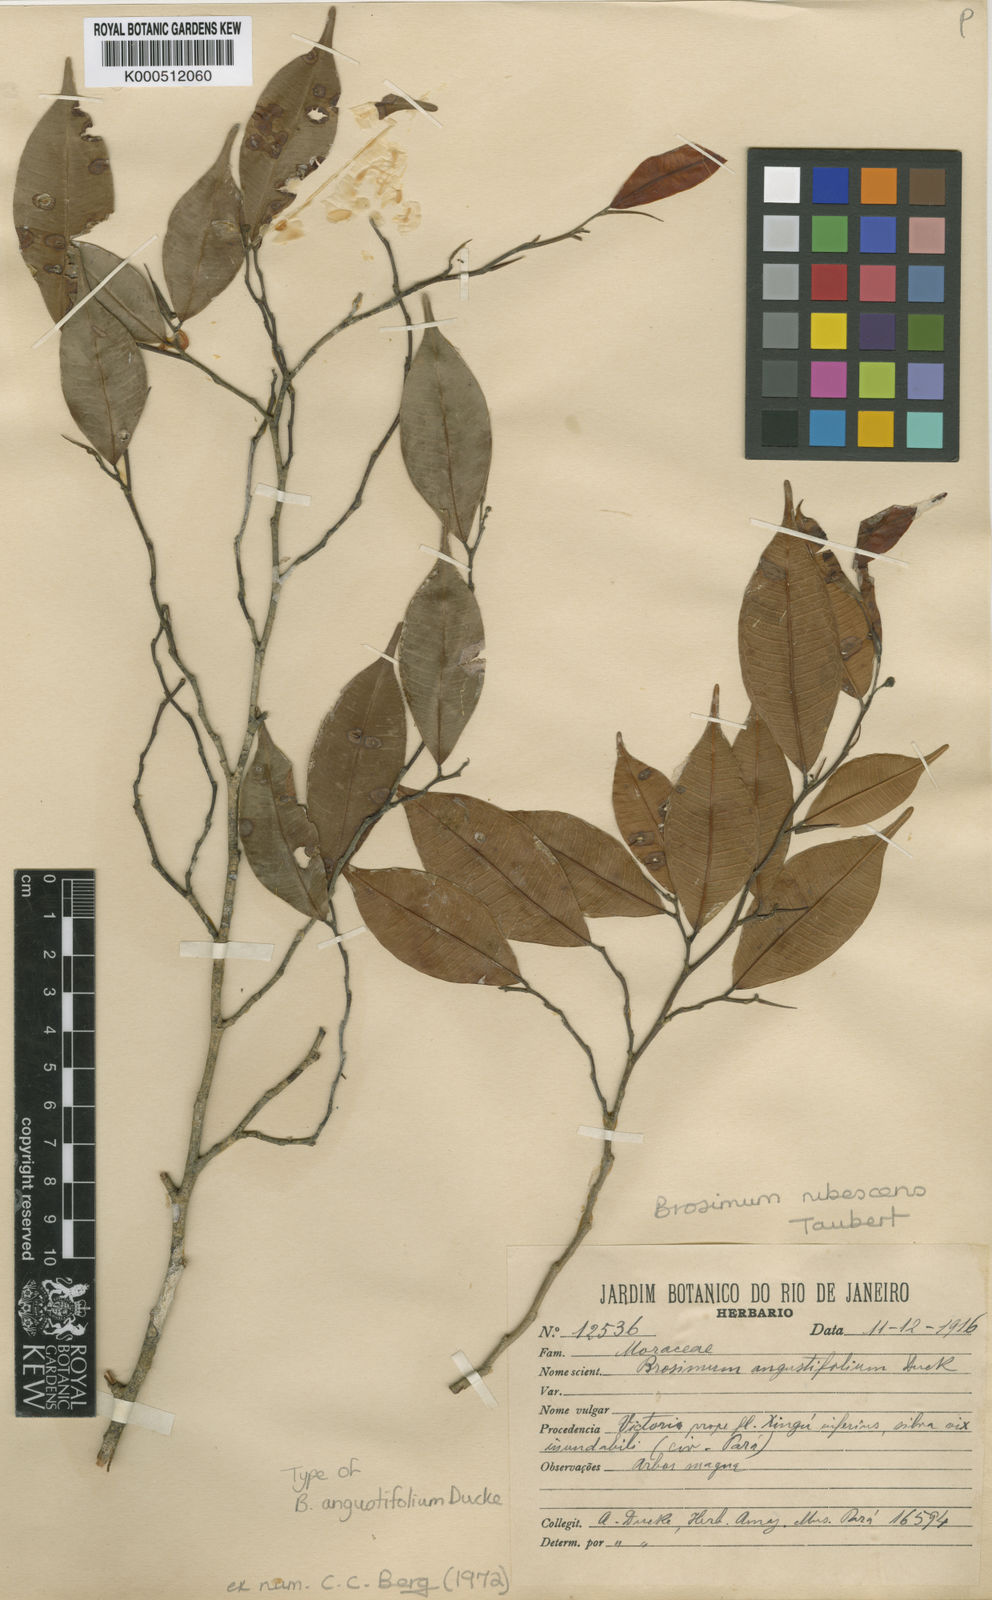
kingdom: Plantae
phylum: Tracheophyta
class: Magnoliopsida
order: Rosales
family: Moraceae
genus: Brosimum
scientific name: Brosimum rubescens
